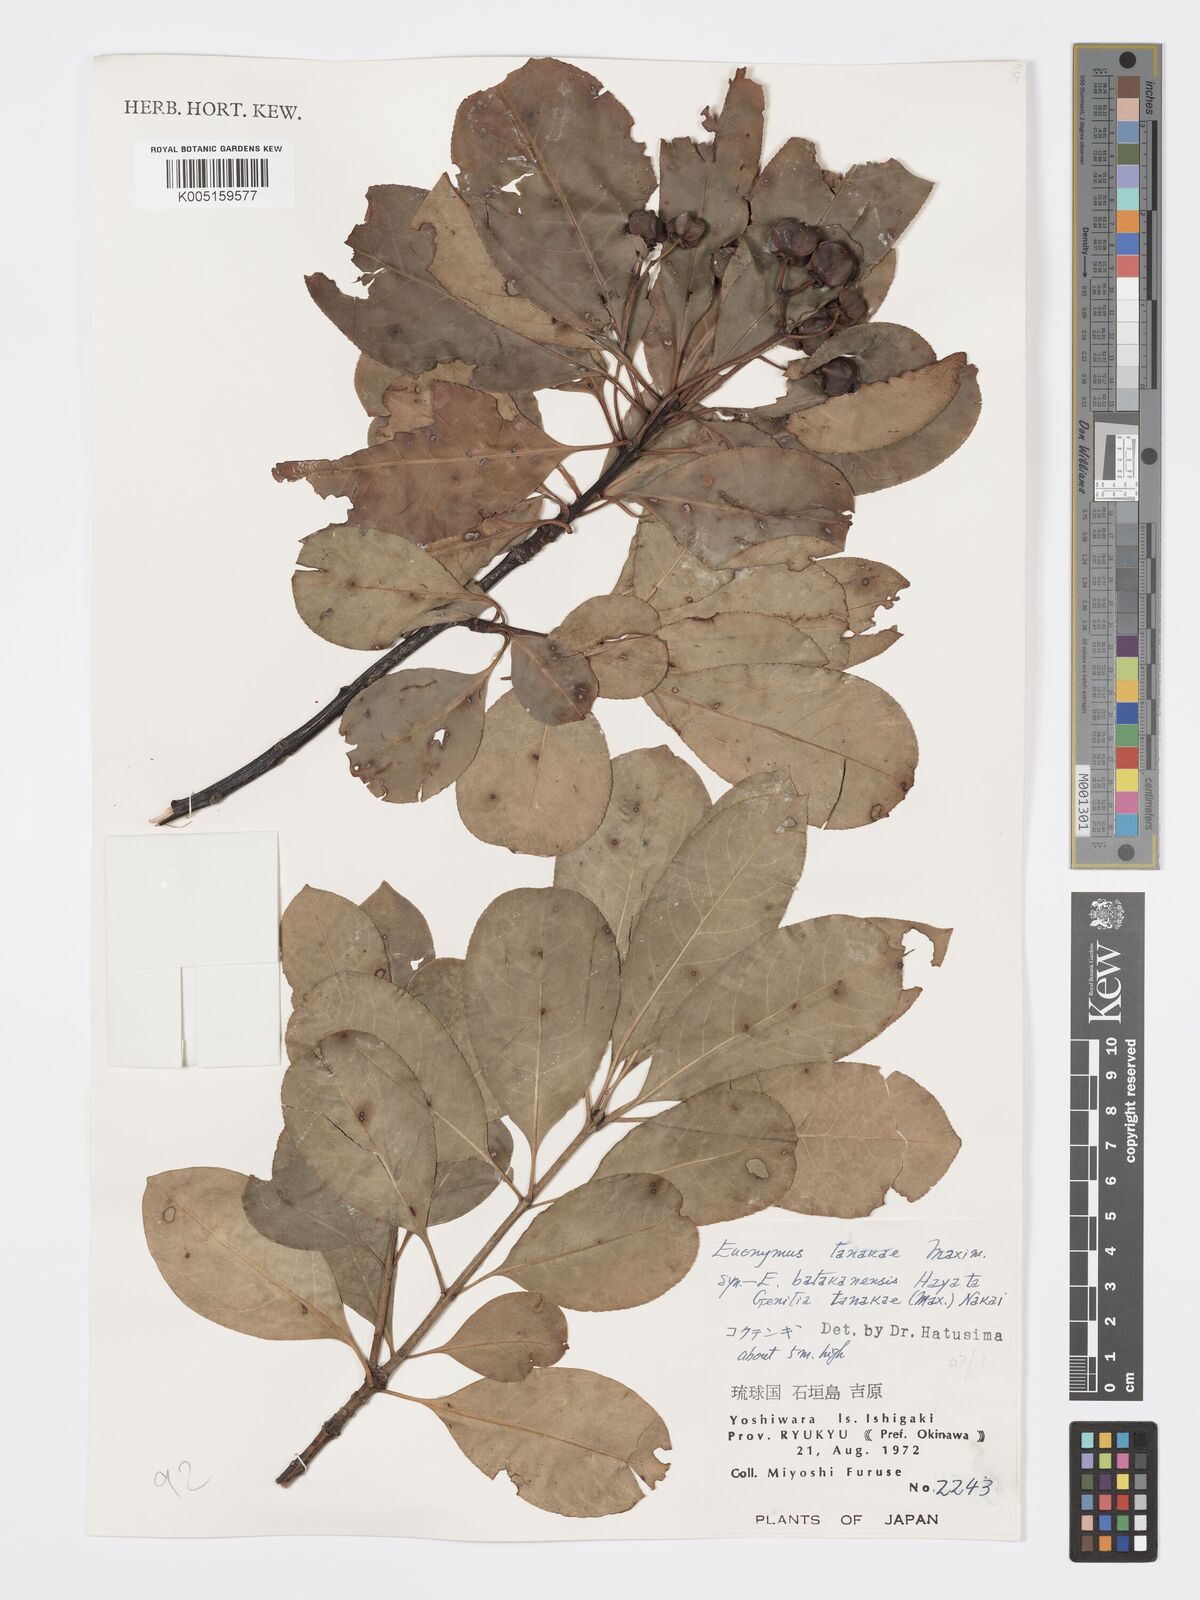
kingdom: Plantae
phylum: Tracheophyta
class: Magnoliopsida
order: Celastrales
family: Celastraceae
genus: Euonymus
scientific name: Euonymus carnosus
